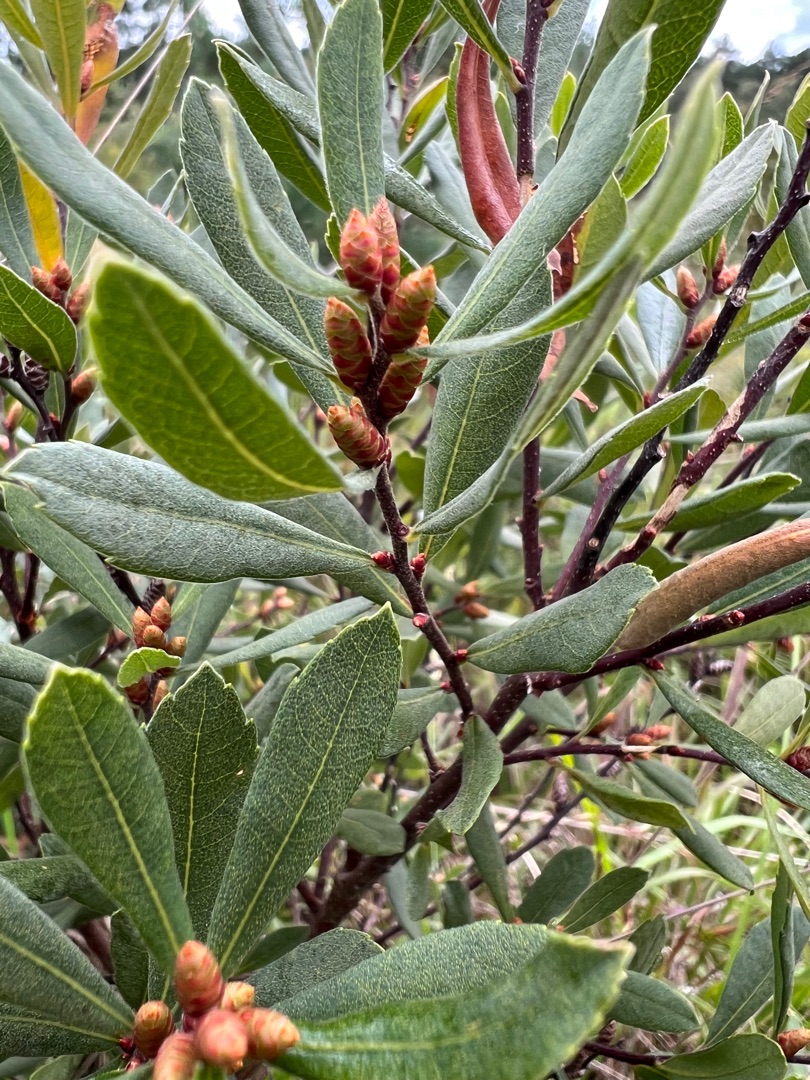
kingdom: Plantae
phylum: Tracheophyta
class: Magnoliopsida
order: Fagales
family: Myricaceae
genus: Myrica
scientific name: Myrica gale
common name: Pors
